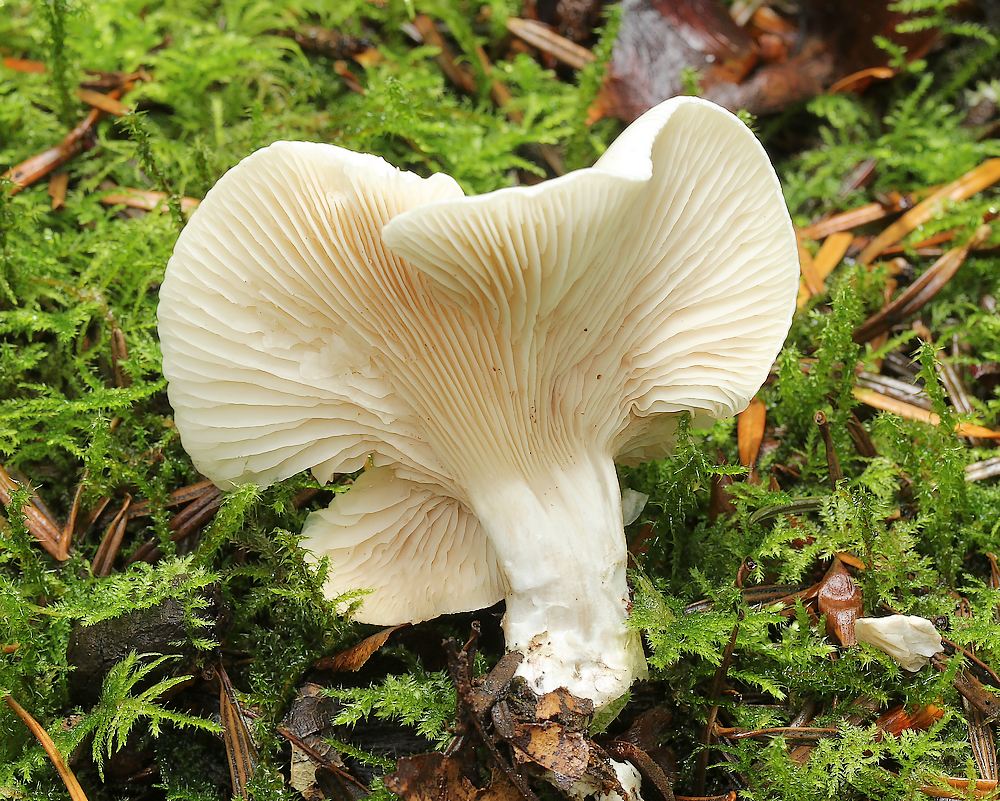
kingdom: Fungi
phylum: Basidiomycota
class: Agaricomycetes
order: Agaricales
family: Entolomataceae
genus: Clitopilus
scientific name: Clitopilus prunulus
